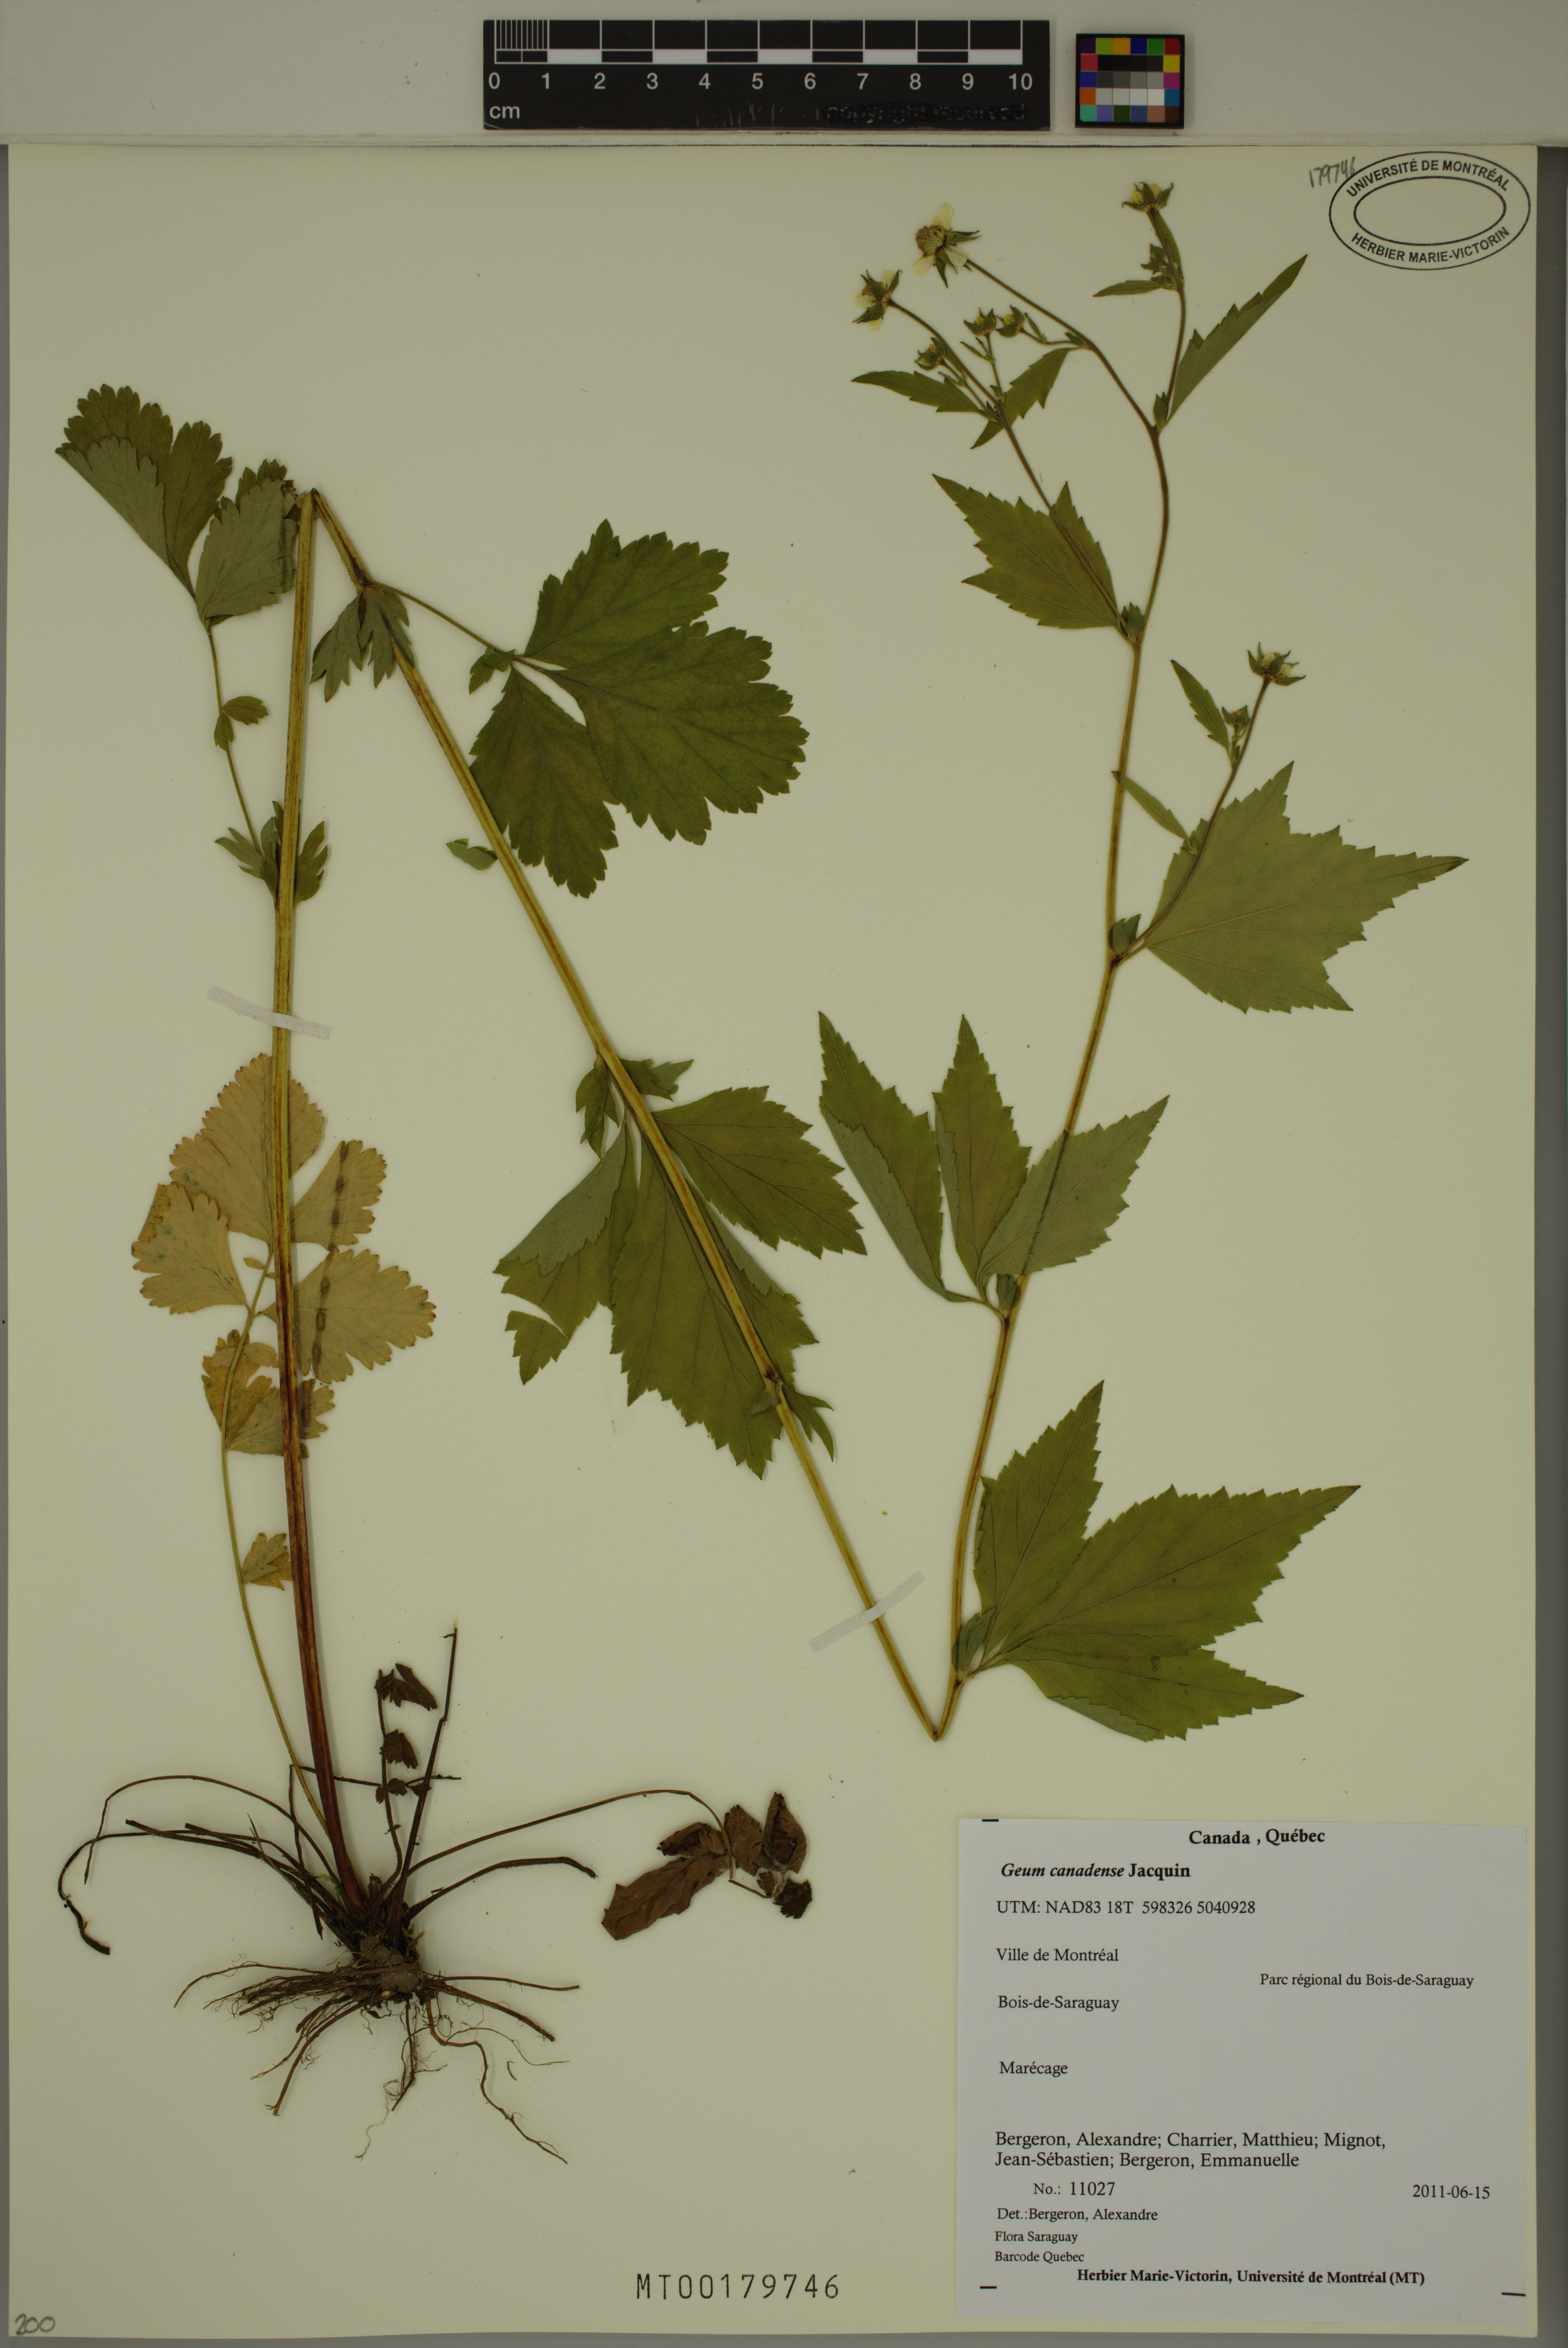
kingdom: Plantae
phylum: Tracheophyta
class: Magnoliopsida
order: Rosales
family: Rosaceae
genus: Geum
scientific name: Geum canadense
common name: White avens
